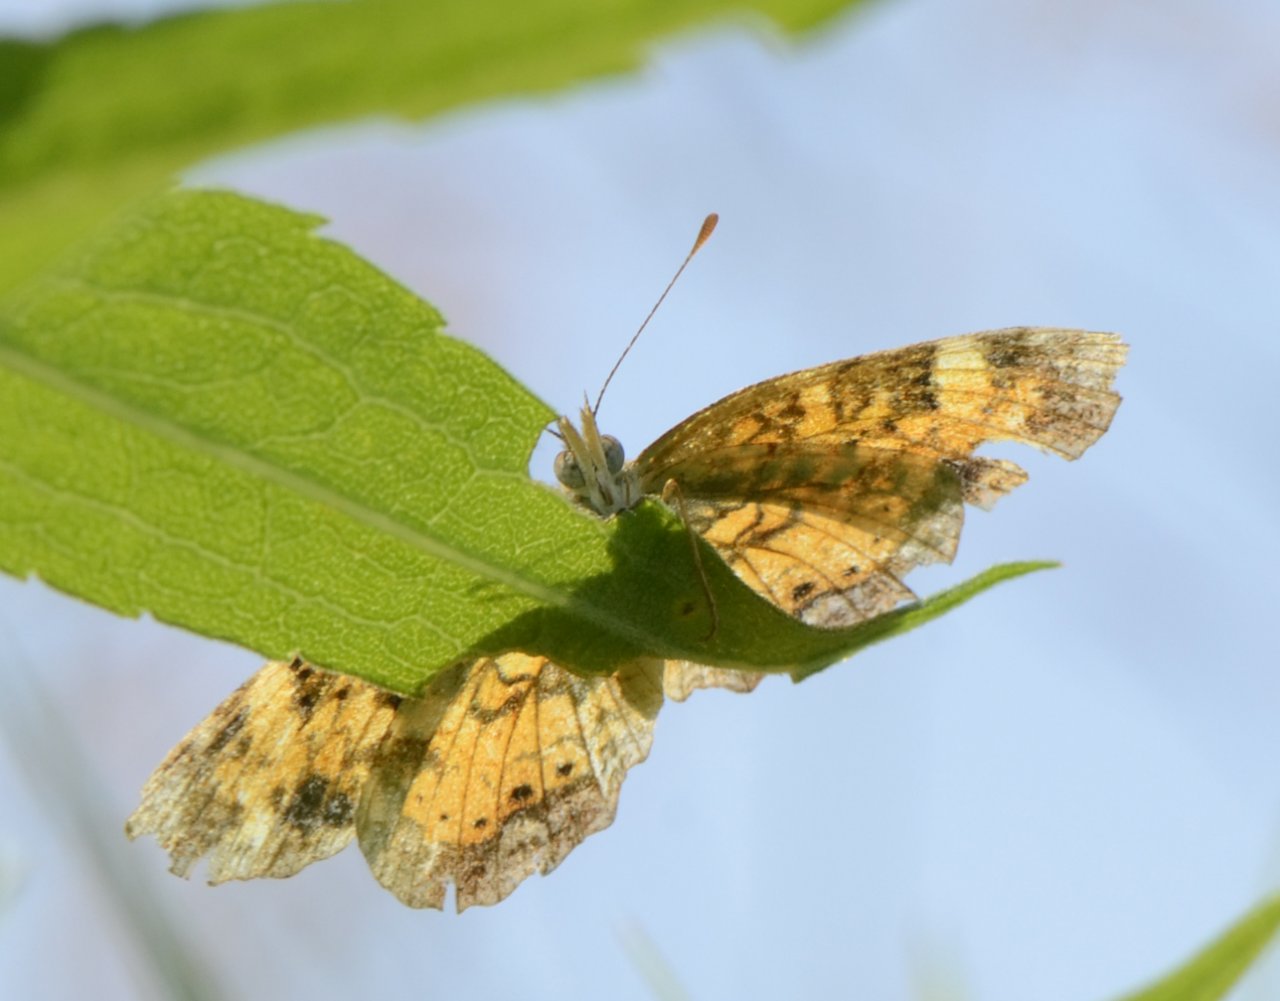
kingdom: Animalia
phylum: Arthropoda
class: Insecta
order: Lepidoptera
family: Nymphalidae
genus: Phyciodes
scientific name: Phyciodes tharos
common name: Pearl Crescent
